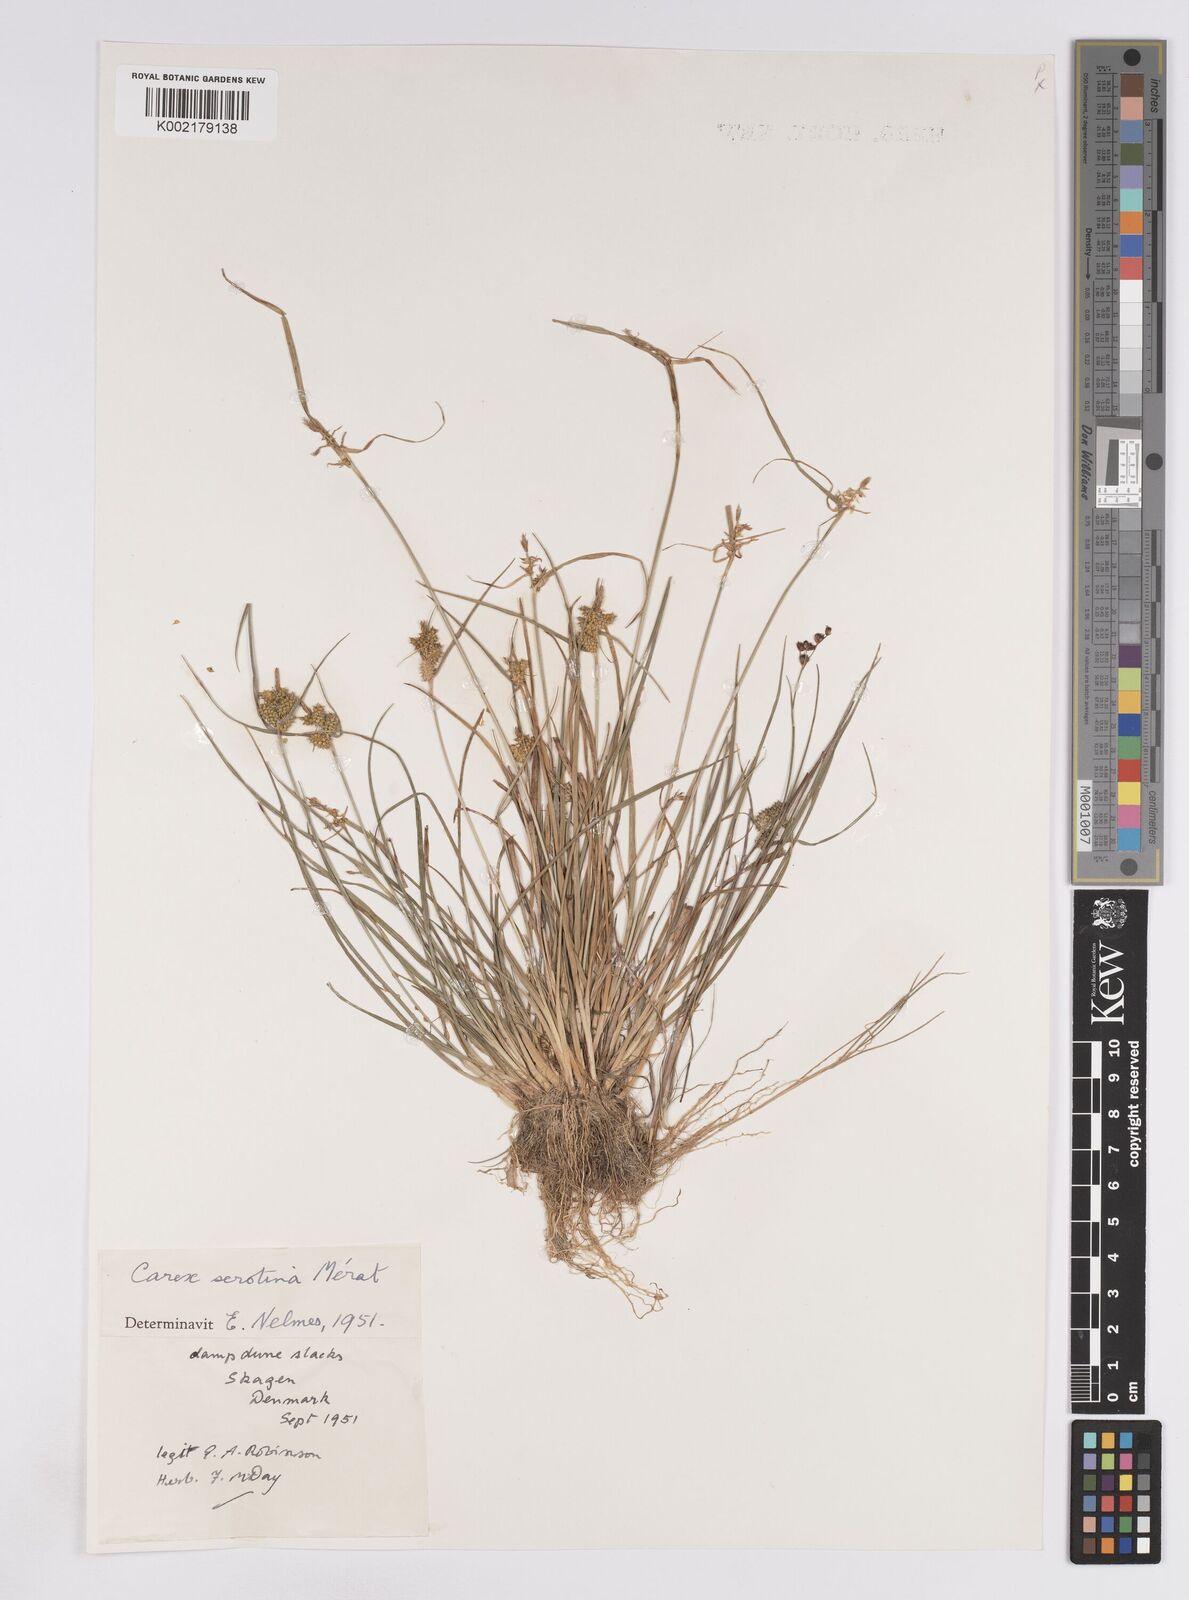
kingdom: Plantae
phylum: Tracheophyta
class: Liliopsida
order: Poales
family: Cyperaceae
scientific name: Cyperaceae
